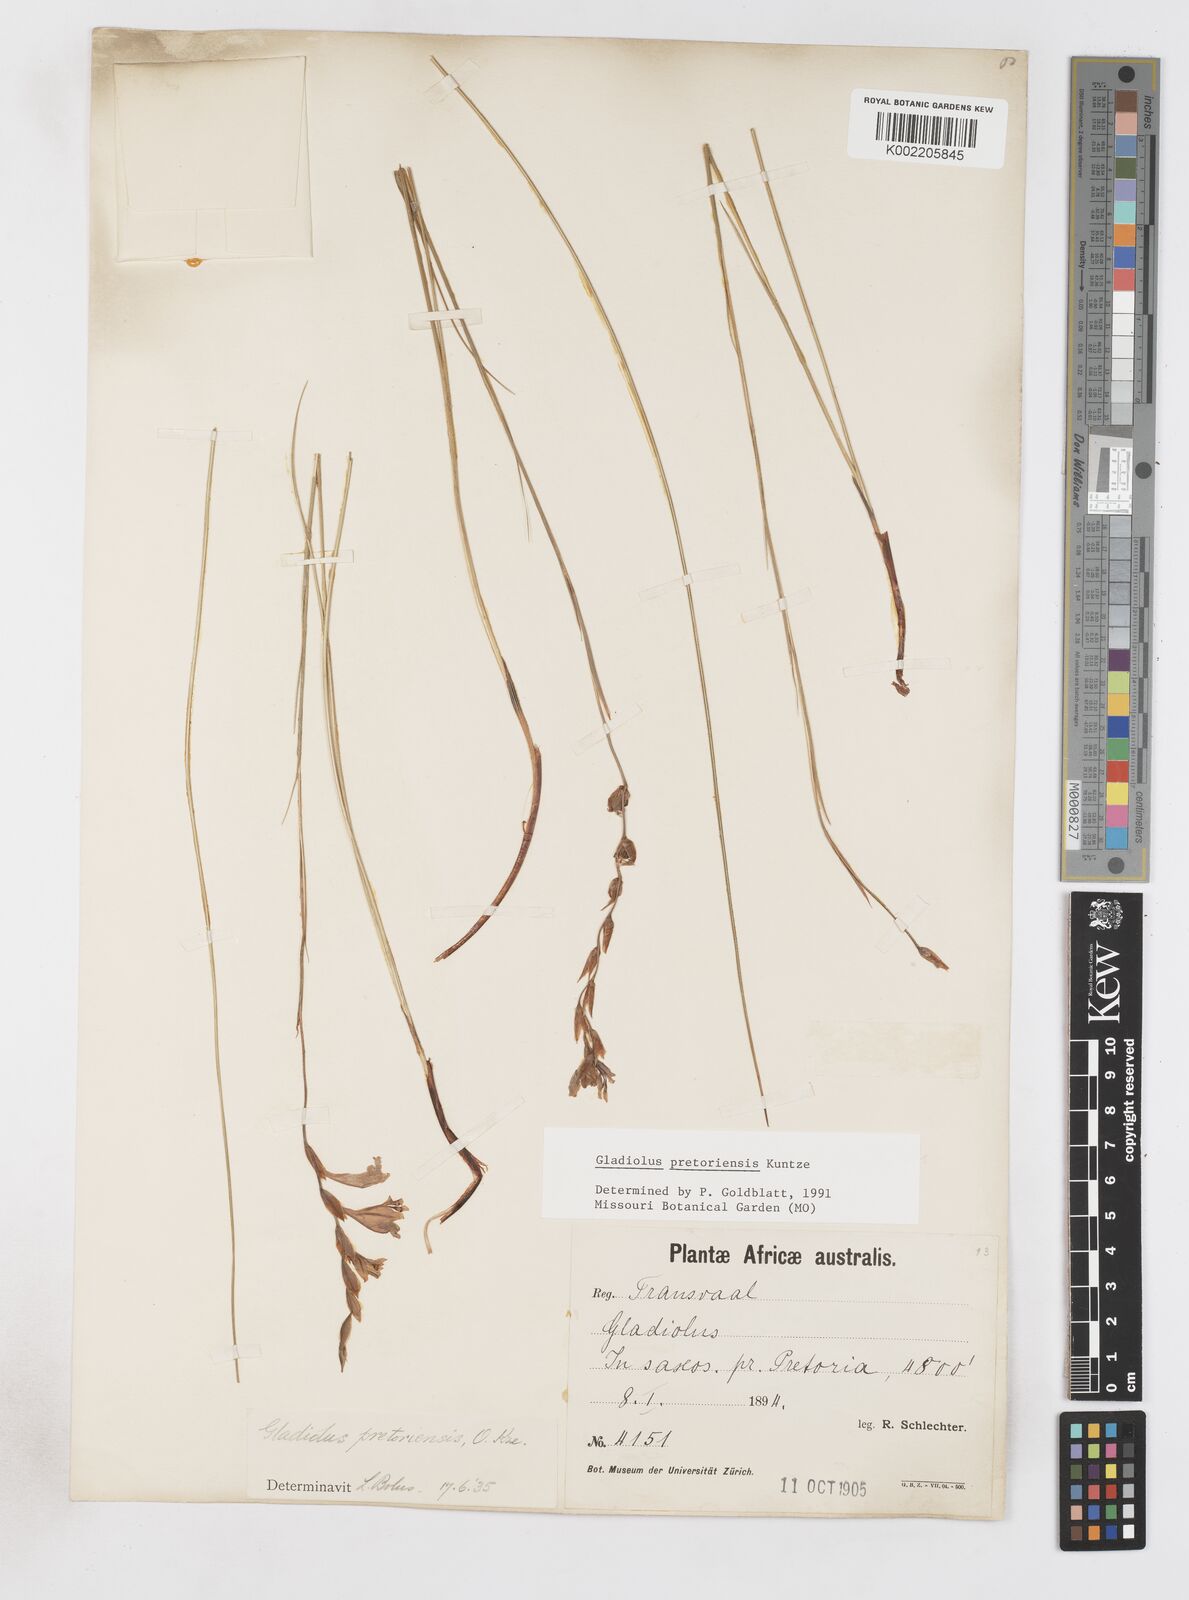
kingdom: Plantae
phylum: Tracheophyta
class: Liliopsida
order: Asparagales
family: Iridaceae
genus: Gladiolus
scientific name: Gladiolus pretoriensis
